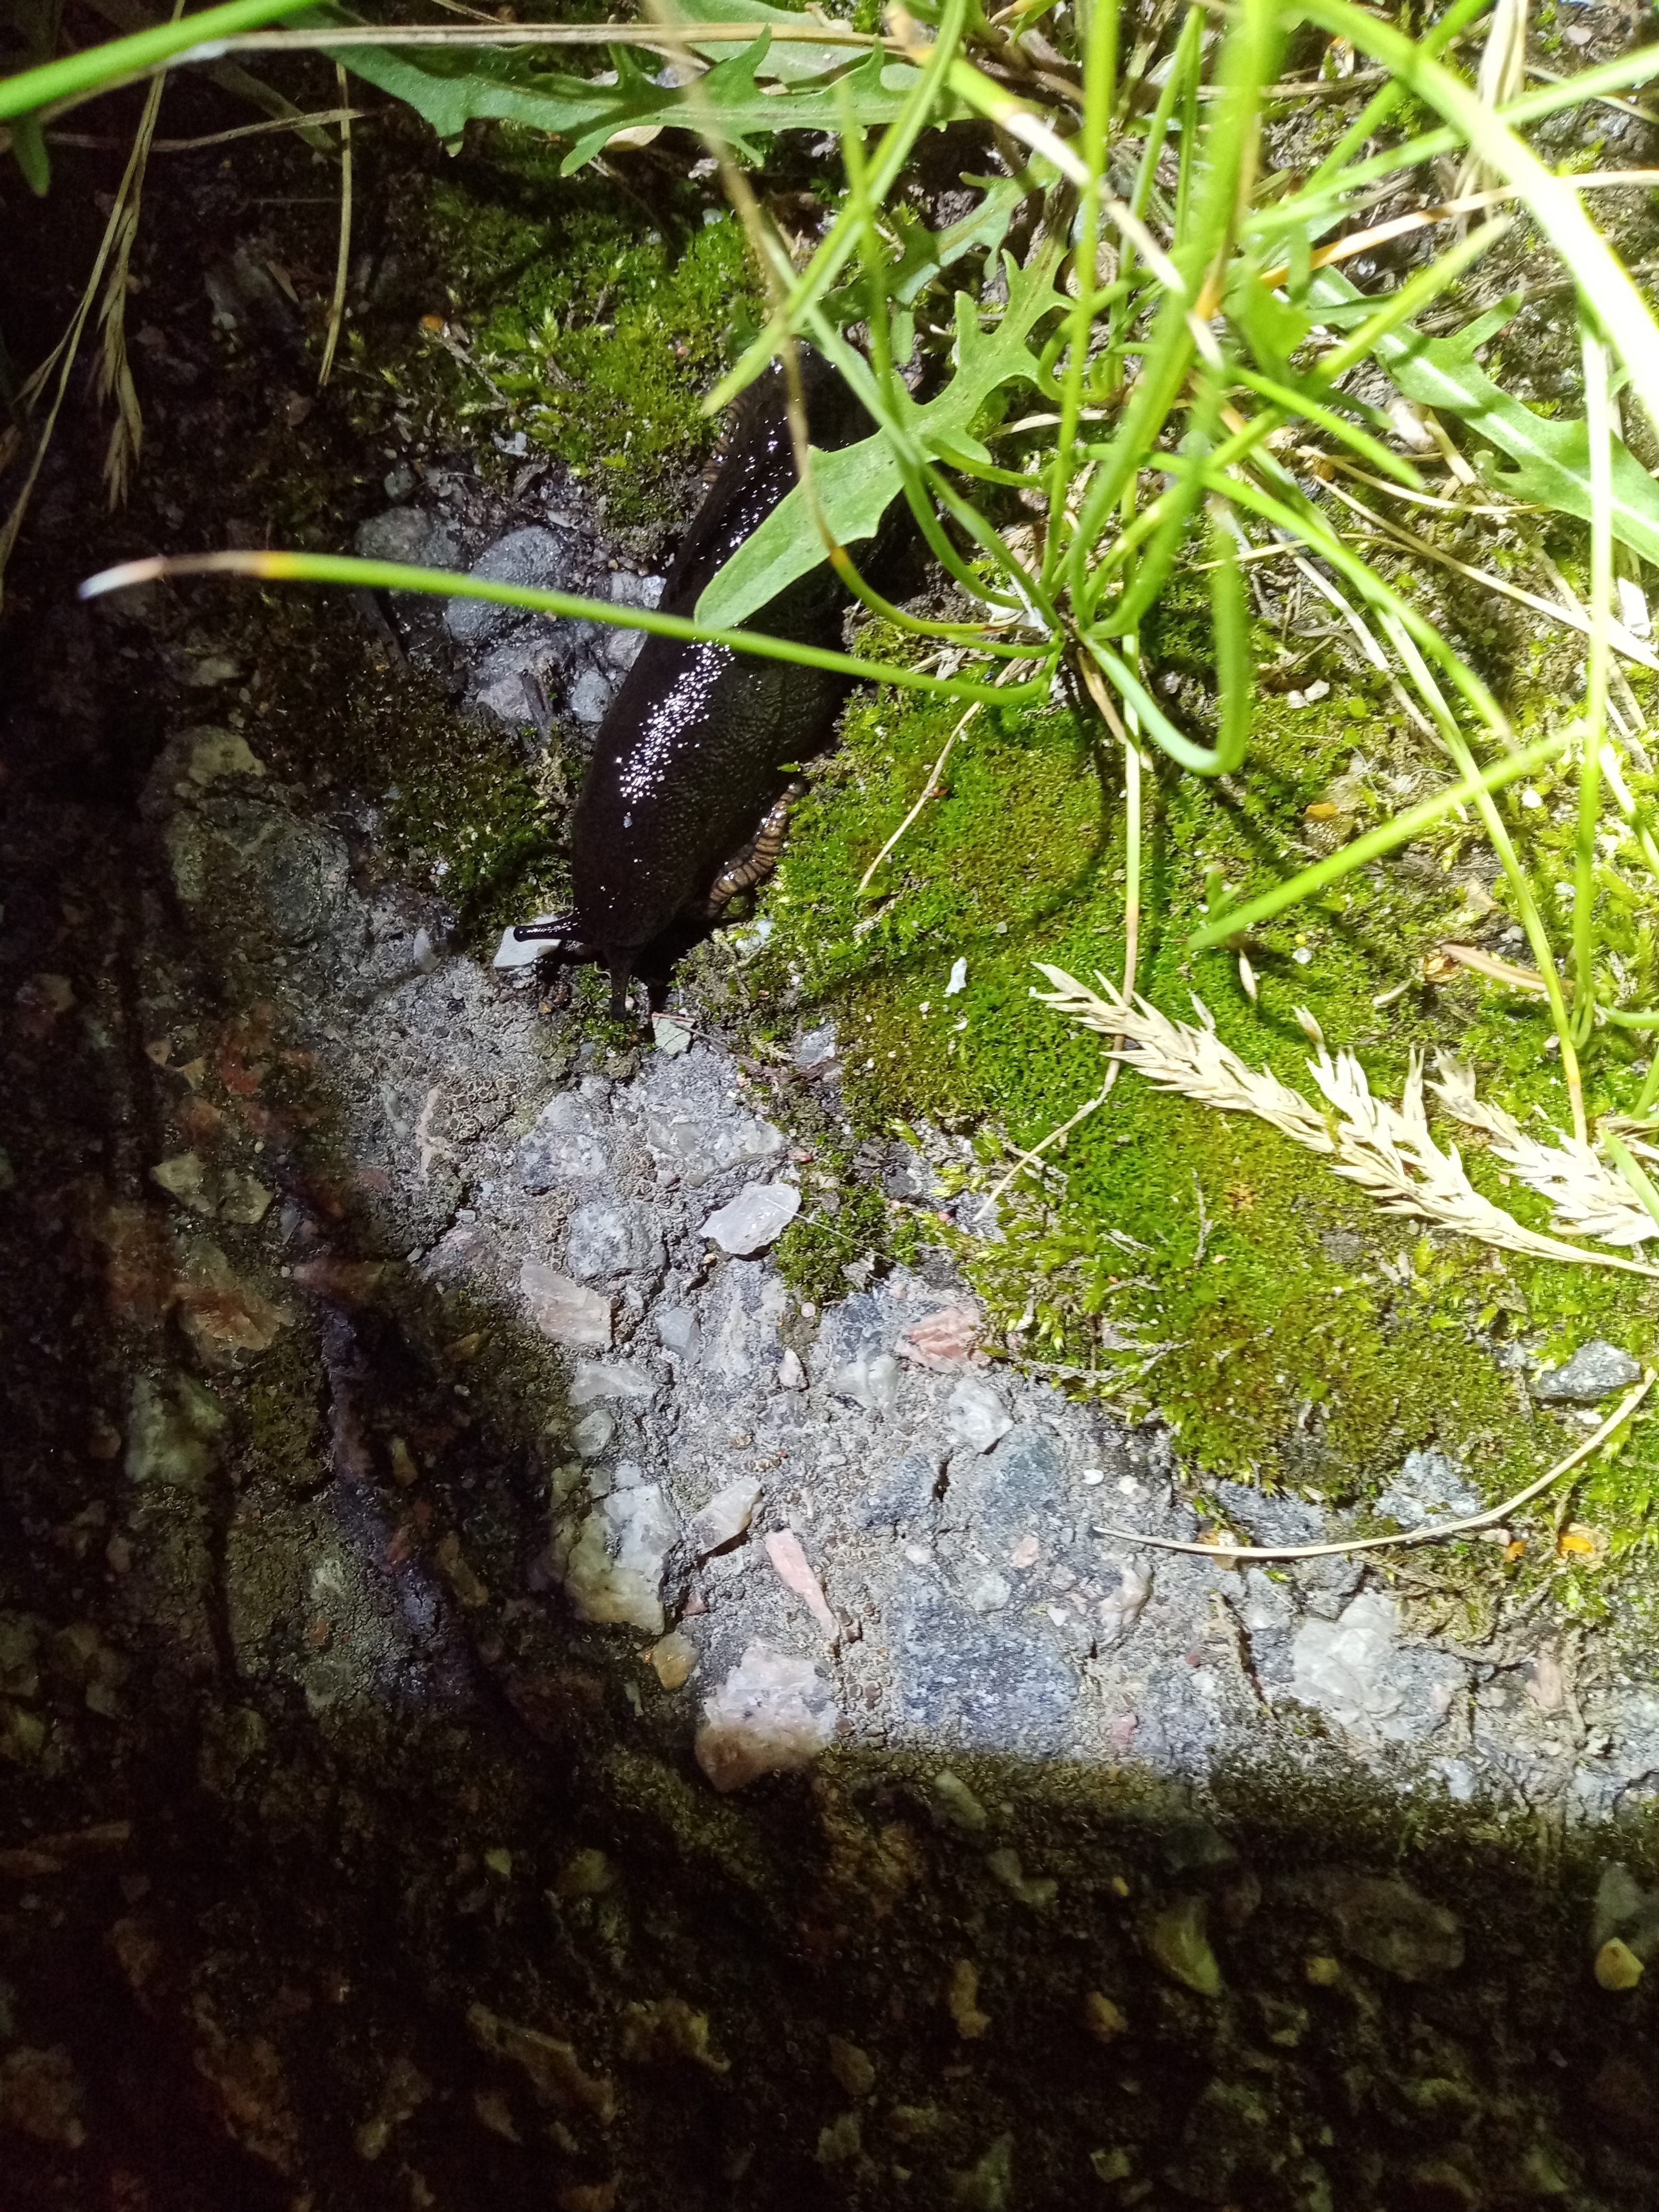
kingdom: Animalia
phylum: Mollusca
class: Gastropoda
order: Stylommatophora
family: Arionidae
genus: Arion
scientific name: Arion ater
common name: Black arion
